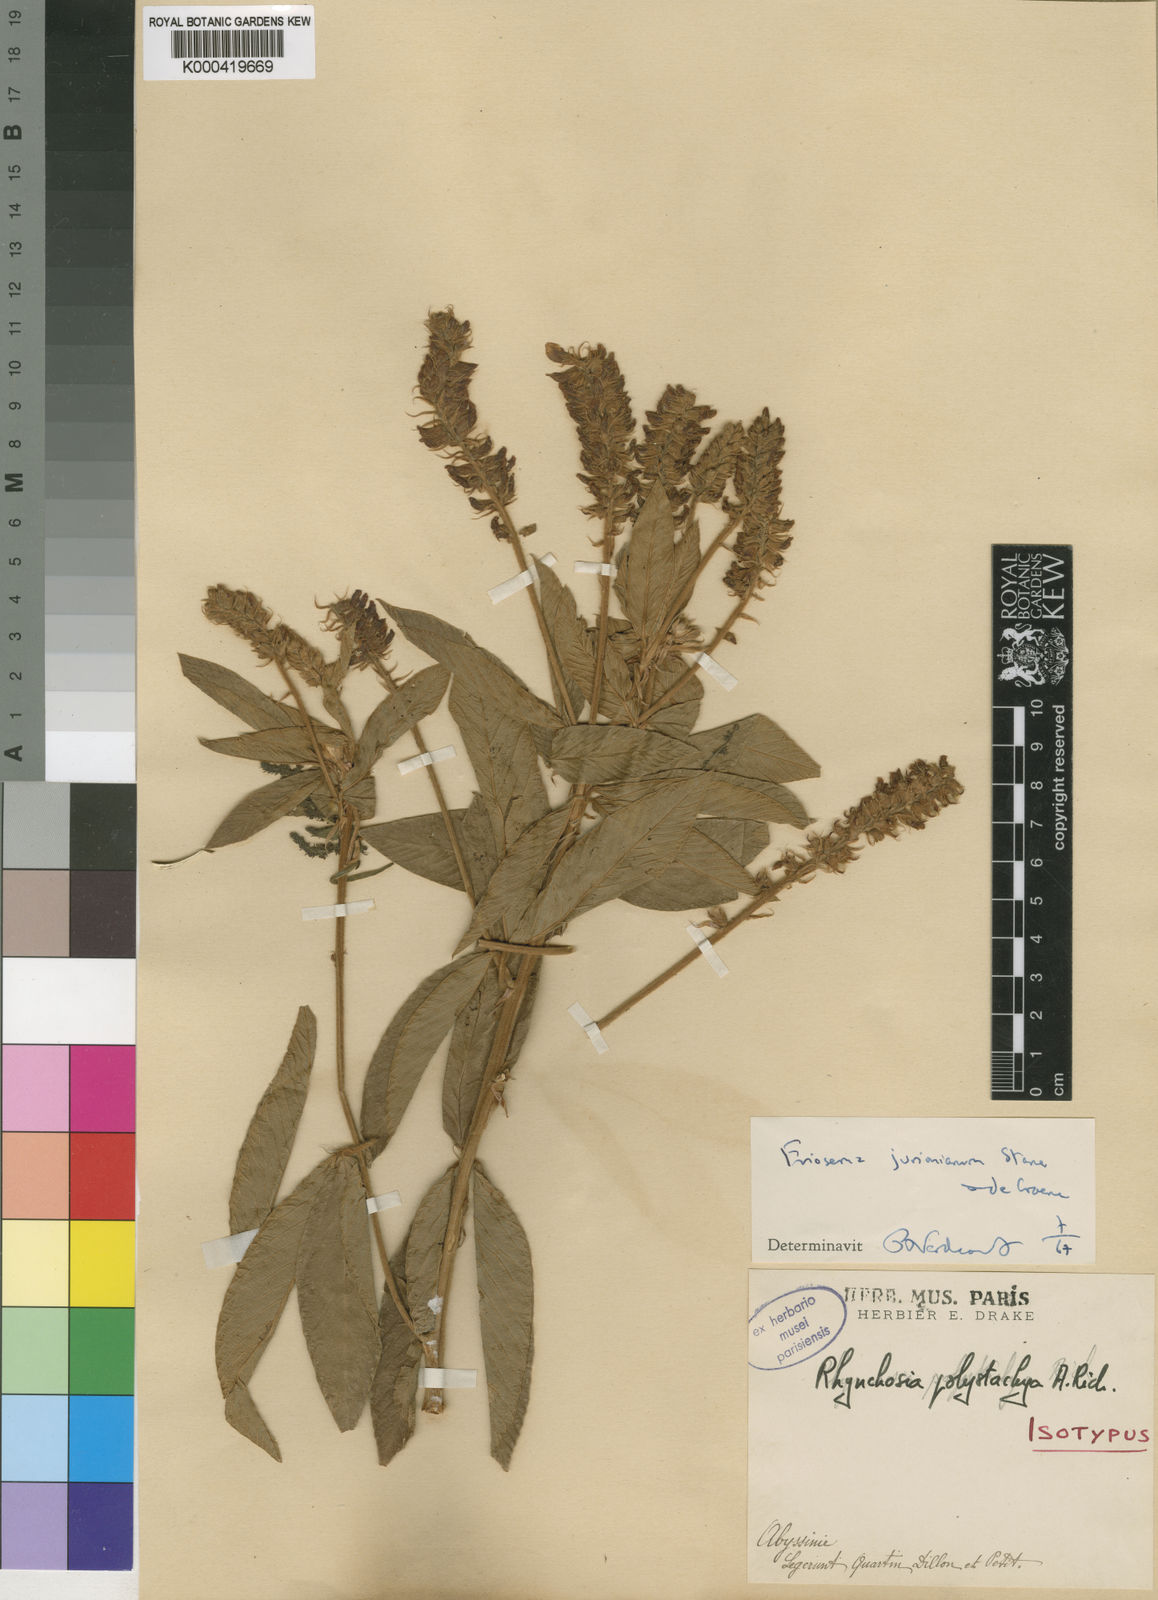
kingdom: Plantae
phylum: Tracheophyta
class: Magnoliopsida
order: Fabales
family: Fabaceae
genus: Eriosema
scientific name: Eriosema jurionianum
